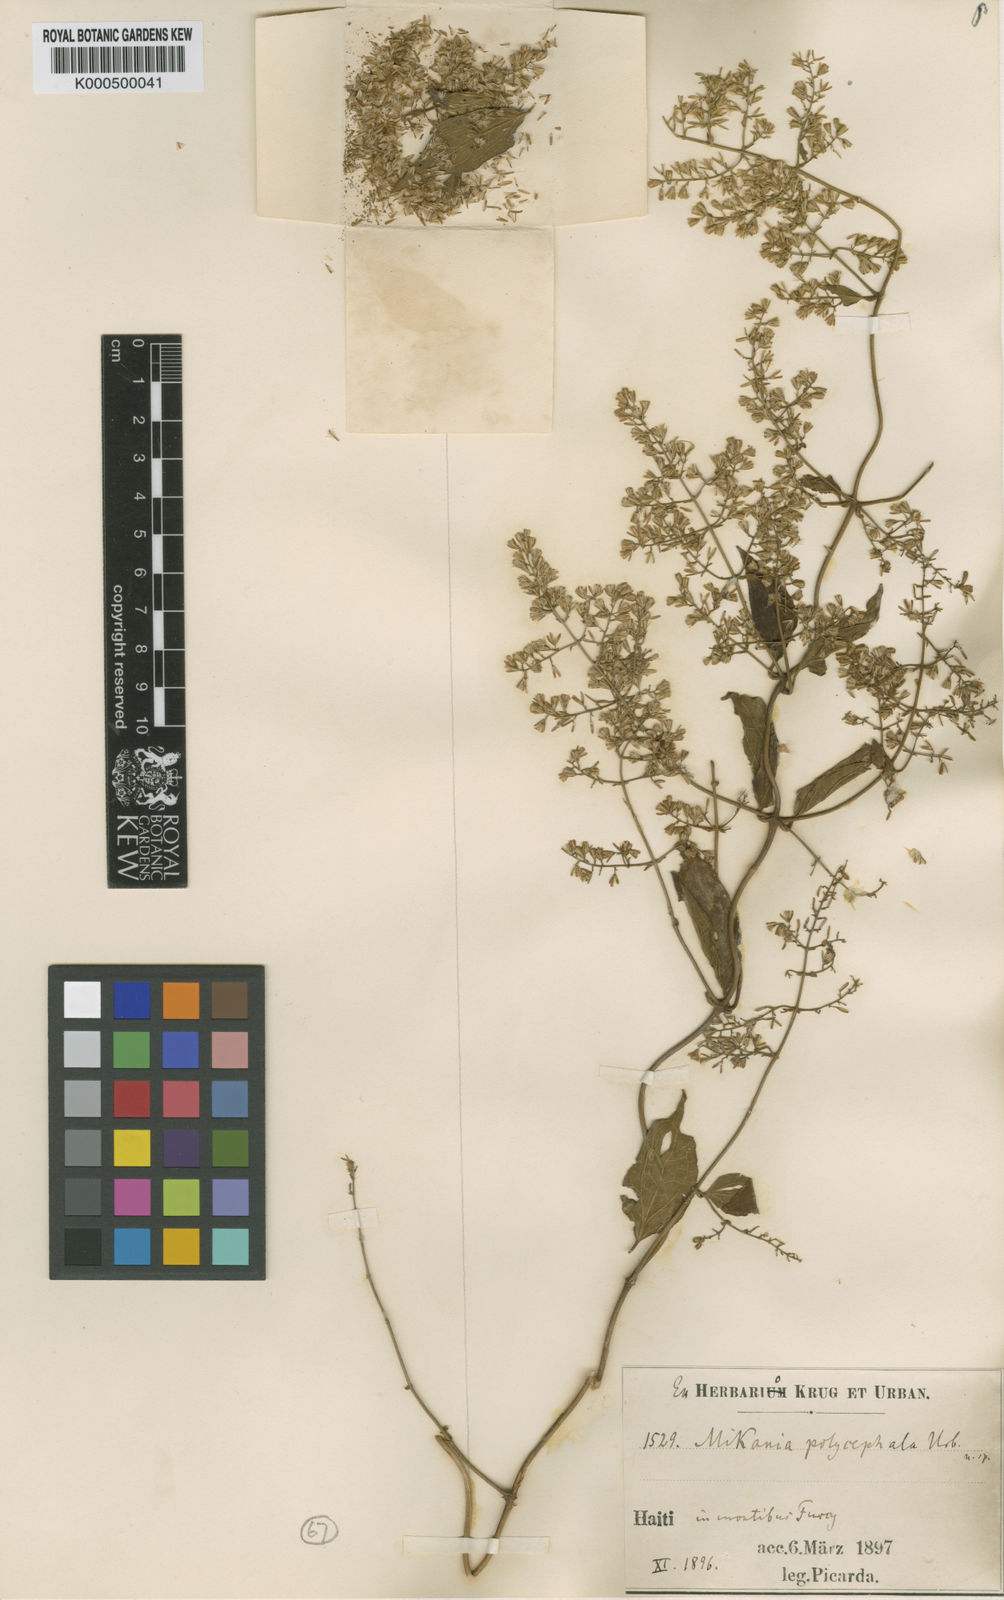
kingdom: Plantae
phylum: Tracheophyta
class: Magnoliopsida
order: Asterales
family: Asteraceae
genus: Mikania
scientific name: Mikania polycephala
